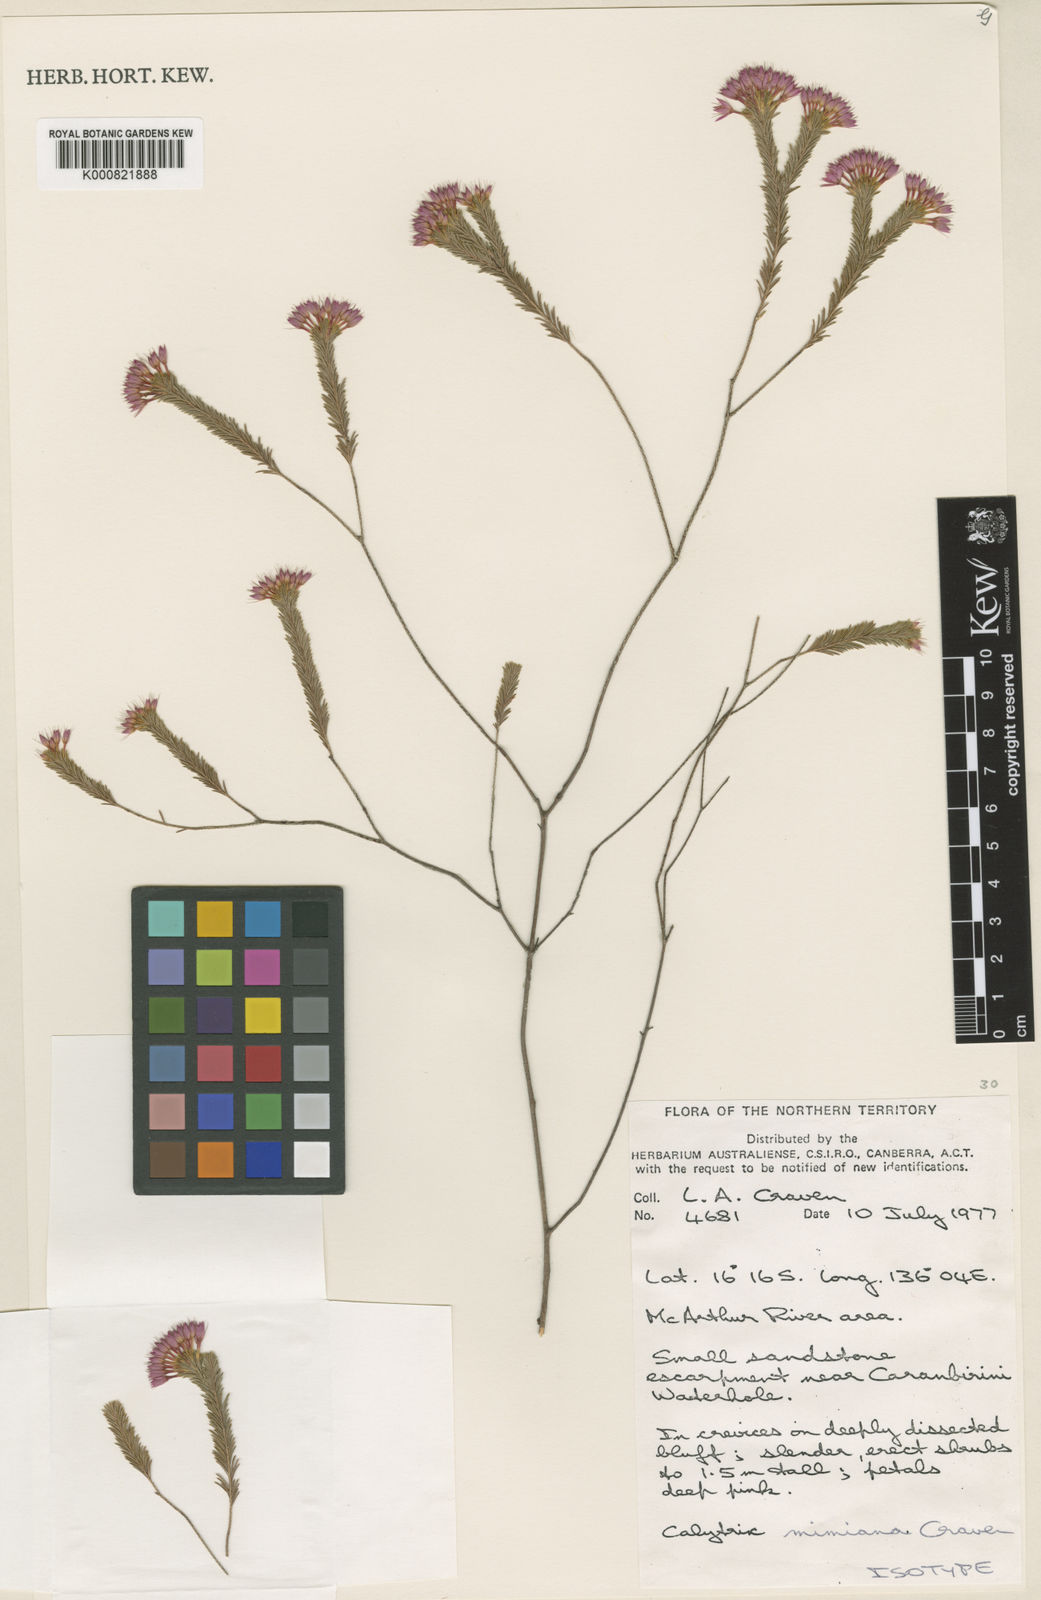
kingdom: Plantae
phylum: Tracheophyta
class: Magnoliopsida
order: Myrtales
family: Myrtaceae
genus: Calytrix
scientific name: Calytrix mimiana
